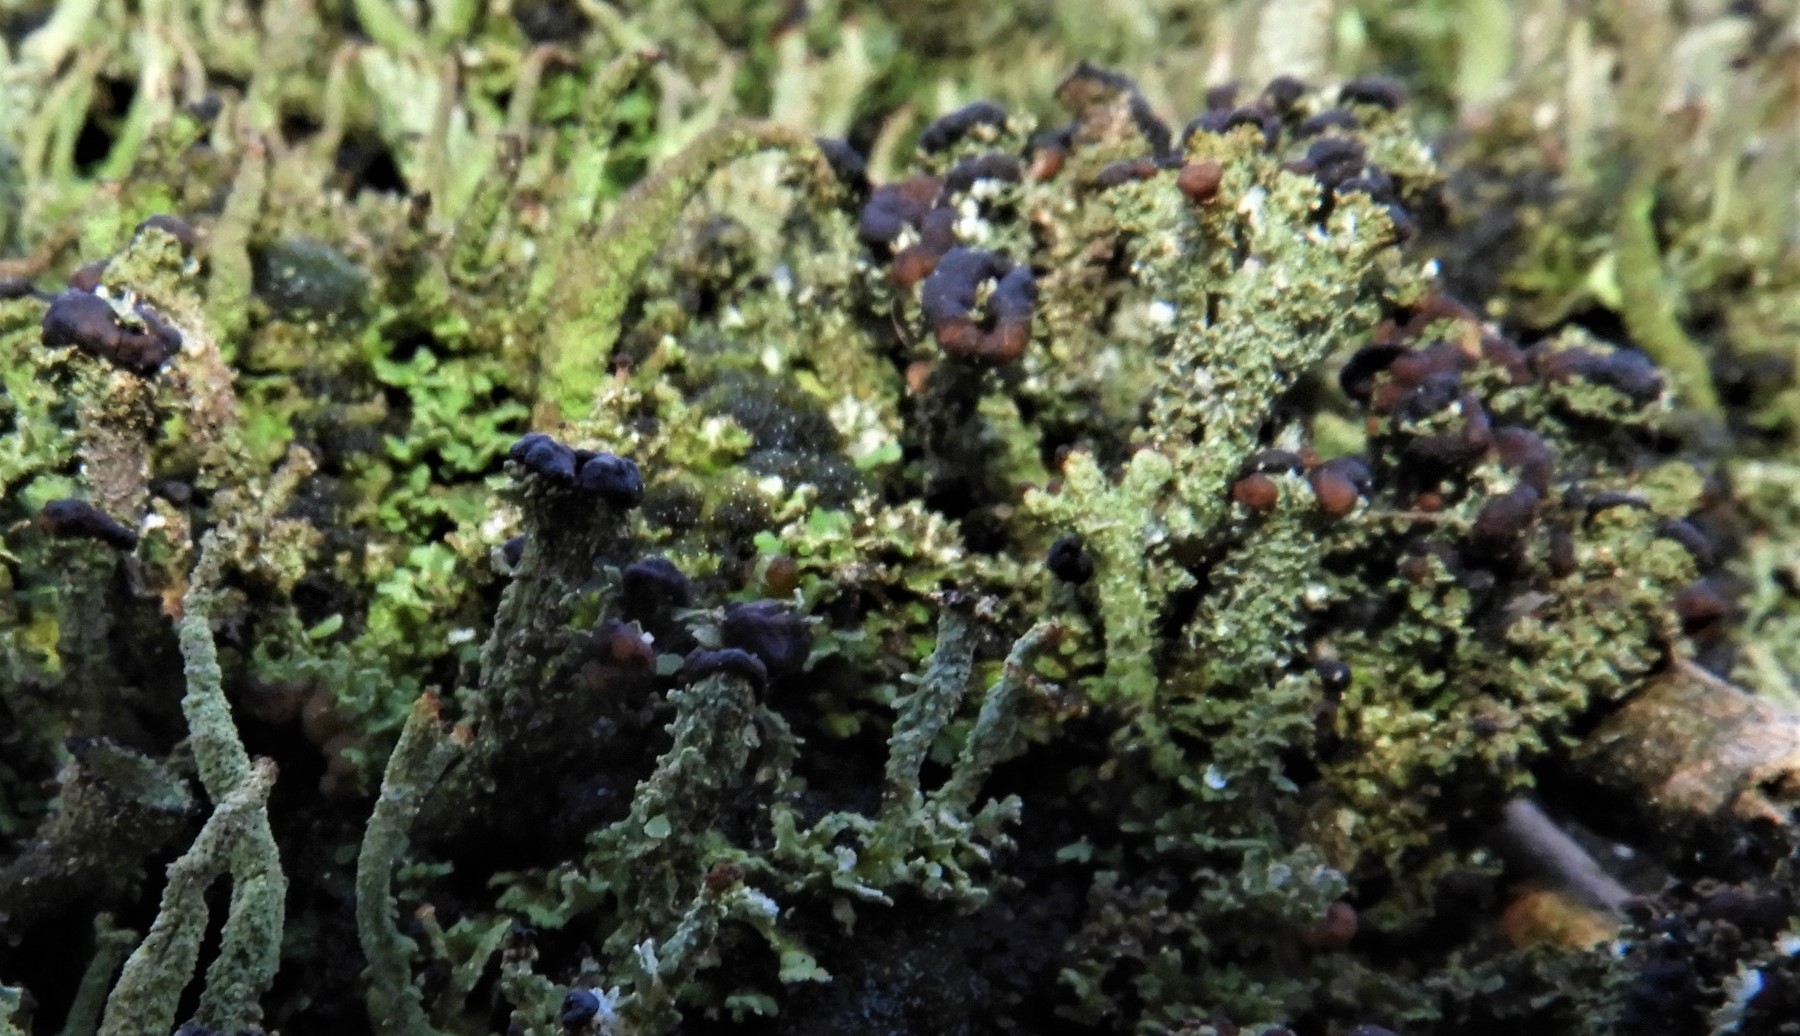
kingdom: Fungi
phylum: Ascomycota
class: Lecanoromycetes
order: Lecanorales
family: Cladoniaceae
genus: Cladonia
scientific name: Cladonia ramulosa
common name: kliddet bægerlav
